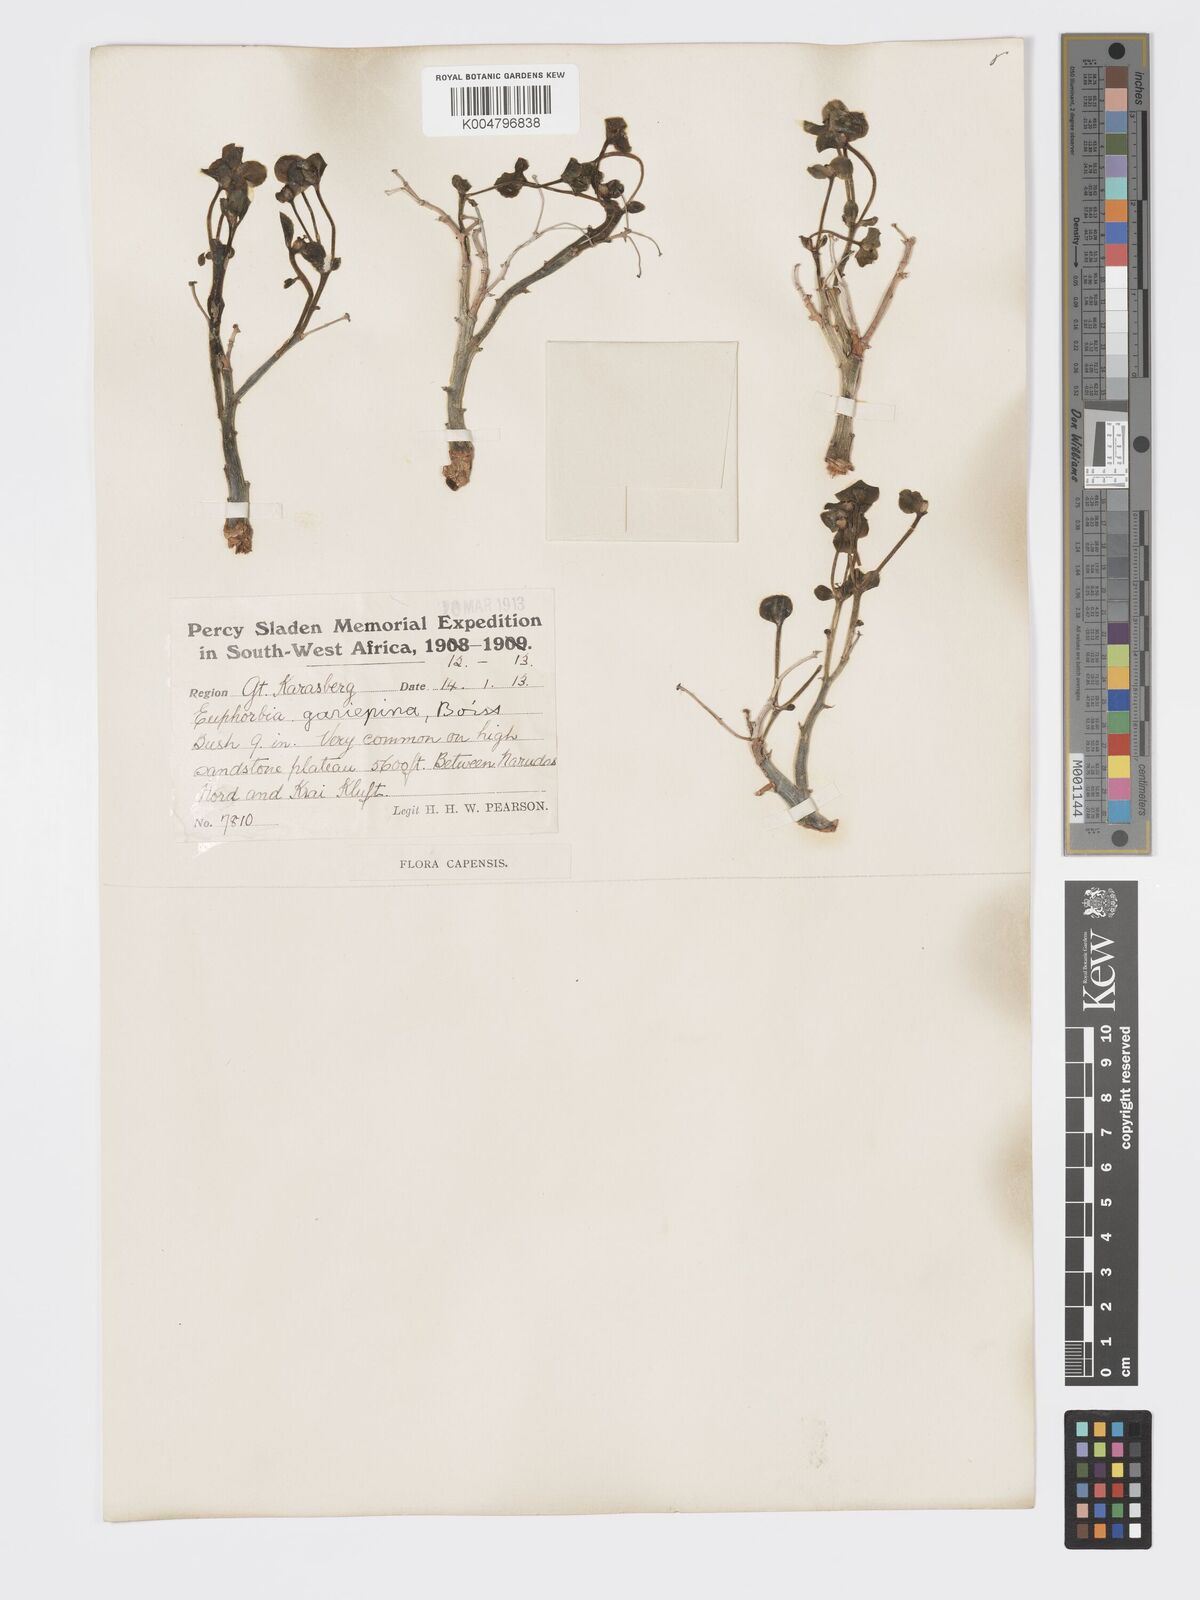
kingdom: Plantae
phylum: Tracheophyta
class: Magnoliopsida
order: Malpighiales
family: Euphorbiaceae
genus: Euphorbia
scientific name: Euphorbia gariepina
